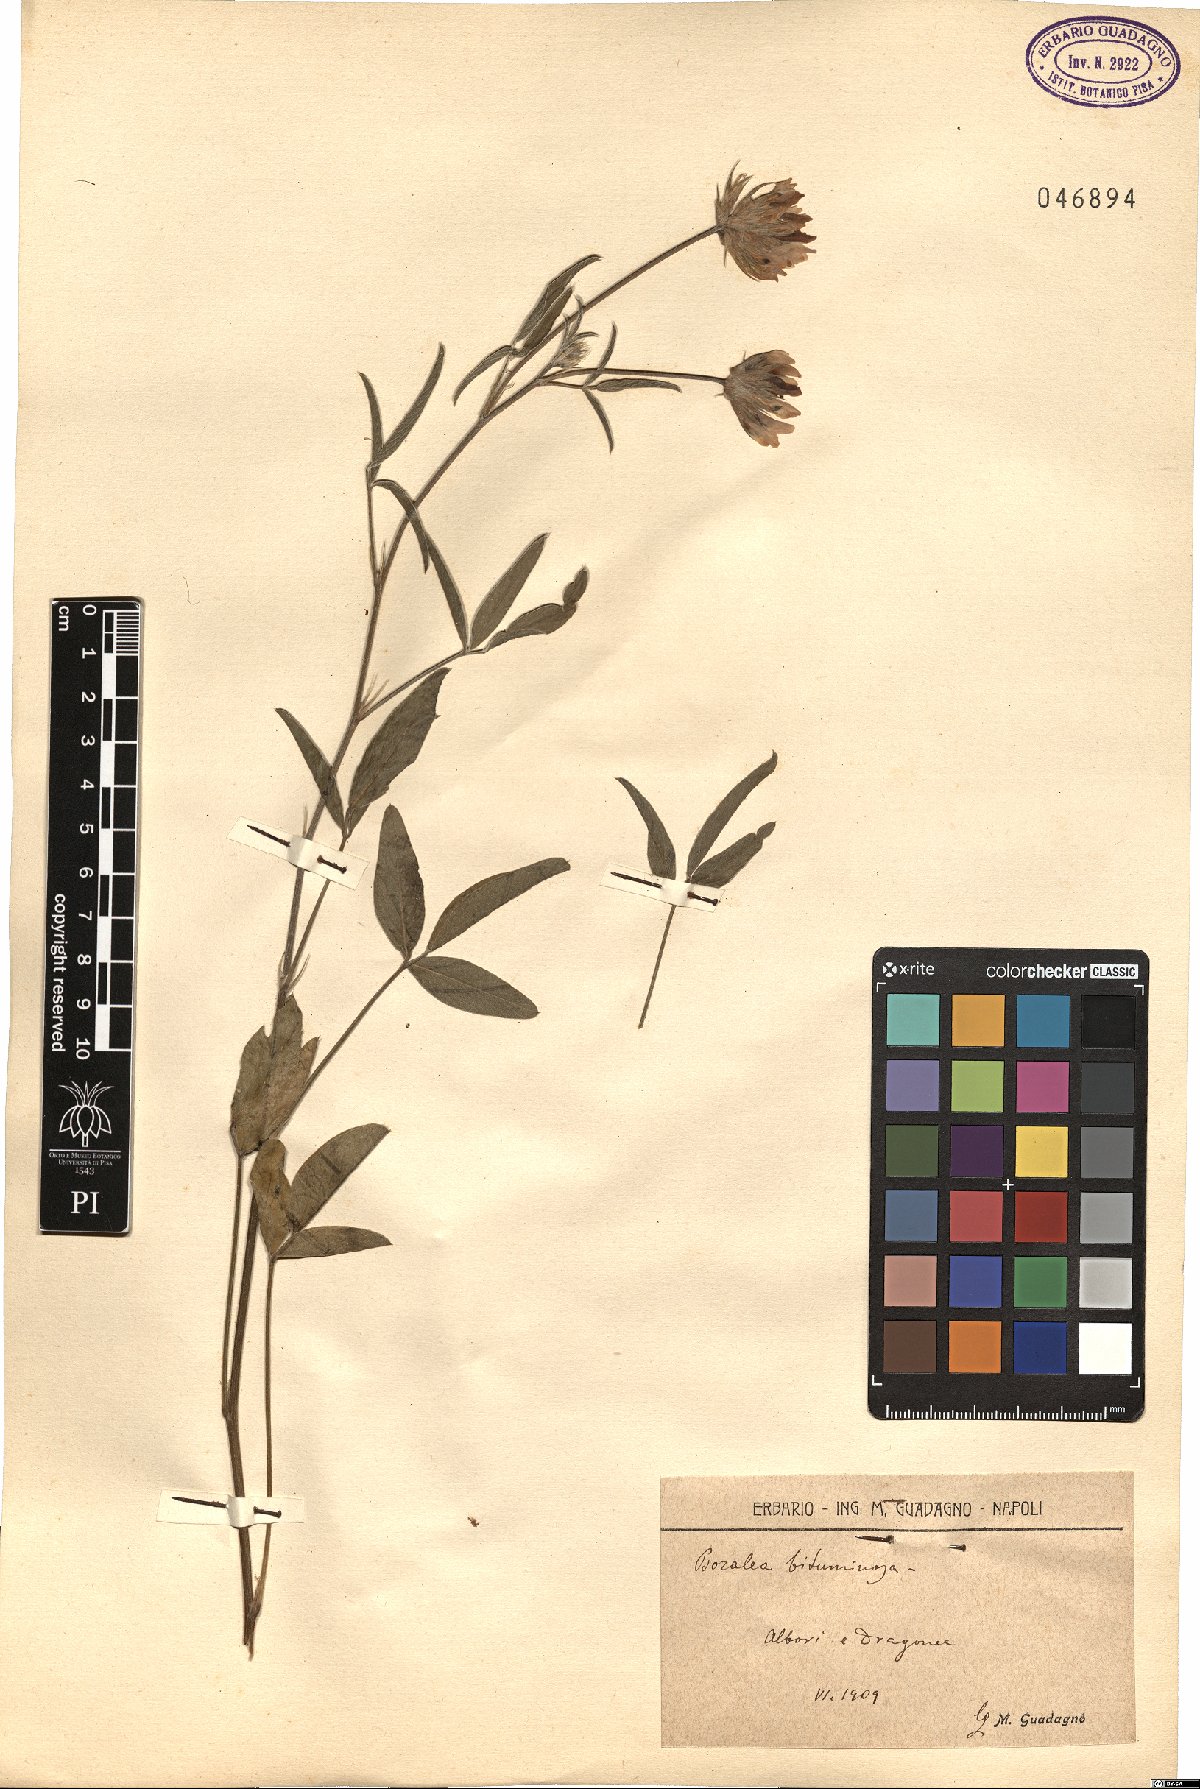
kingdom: Plantae
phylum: Tracheophyta
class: Magnoliopsida
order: Fabales
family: Fabaceae
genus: Bituminaria
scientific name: Bituminaria bituminosa
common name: Arabian pea
